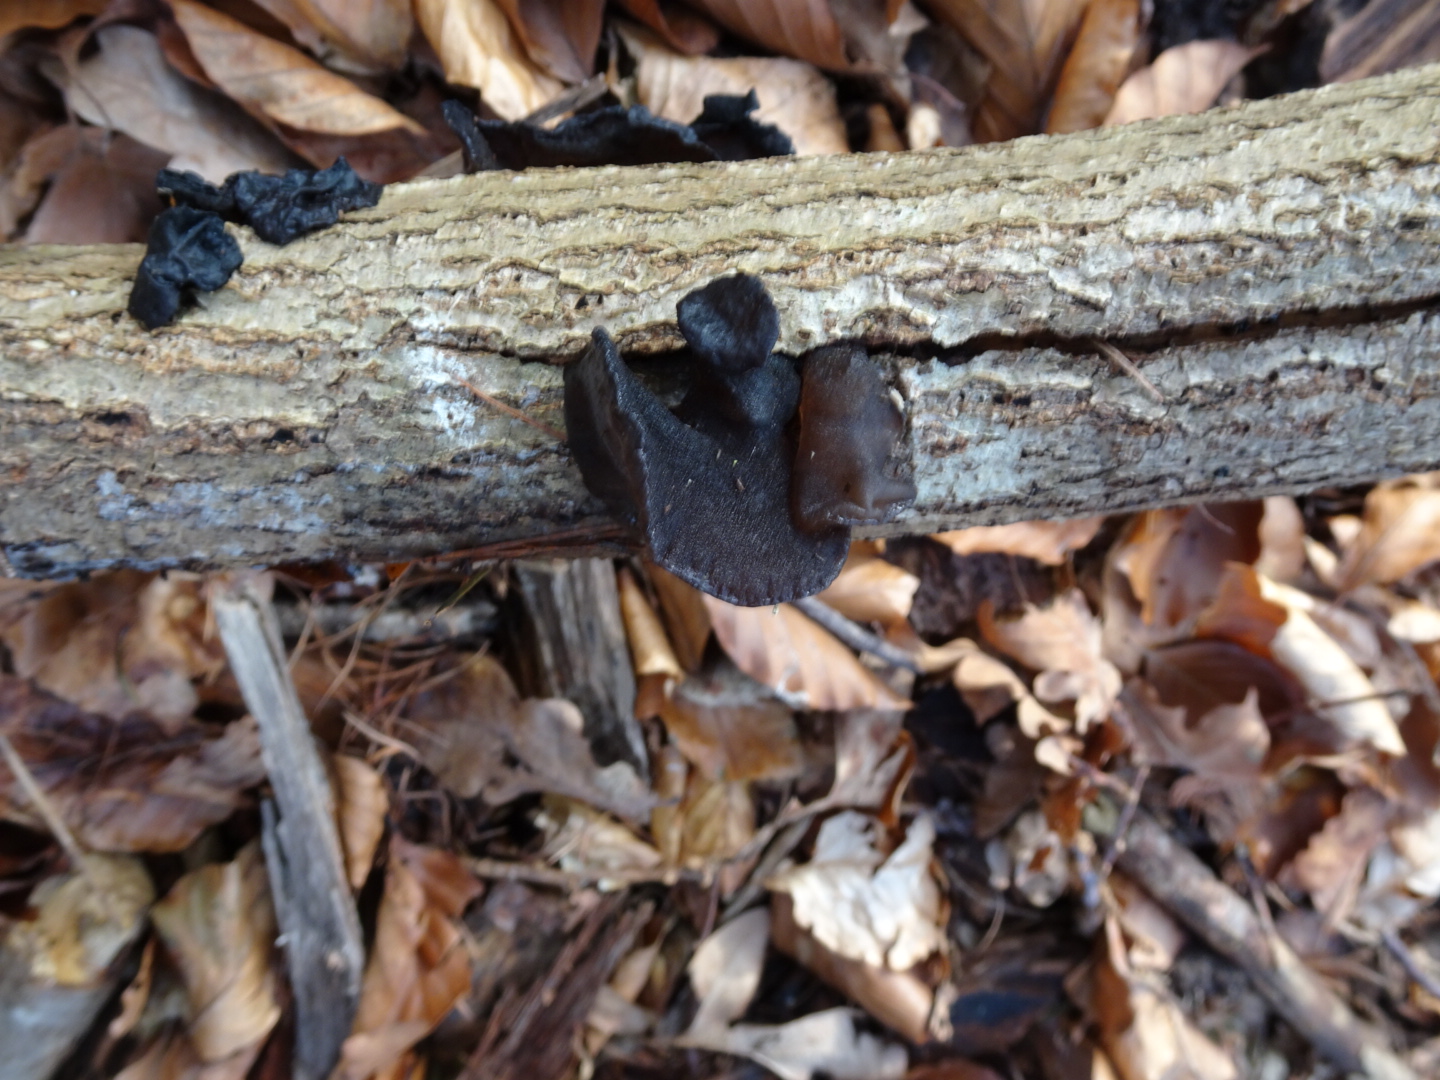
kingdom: Fungi
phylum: Basidiomycota
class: Agaricomycetes
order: Auriculariales
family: Auriculariaceae
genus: Exidia
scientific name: Exidia glandulosa
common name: ege-bævretop
